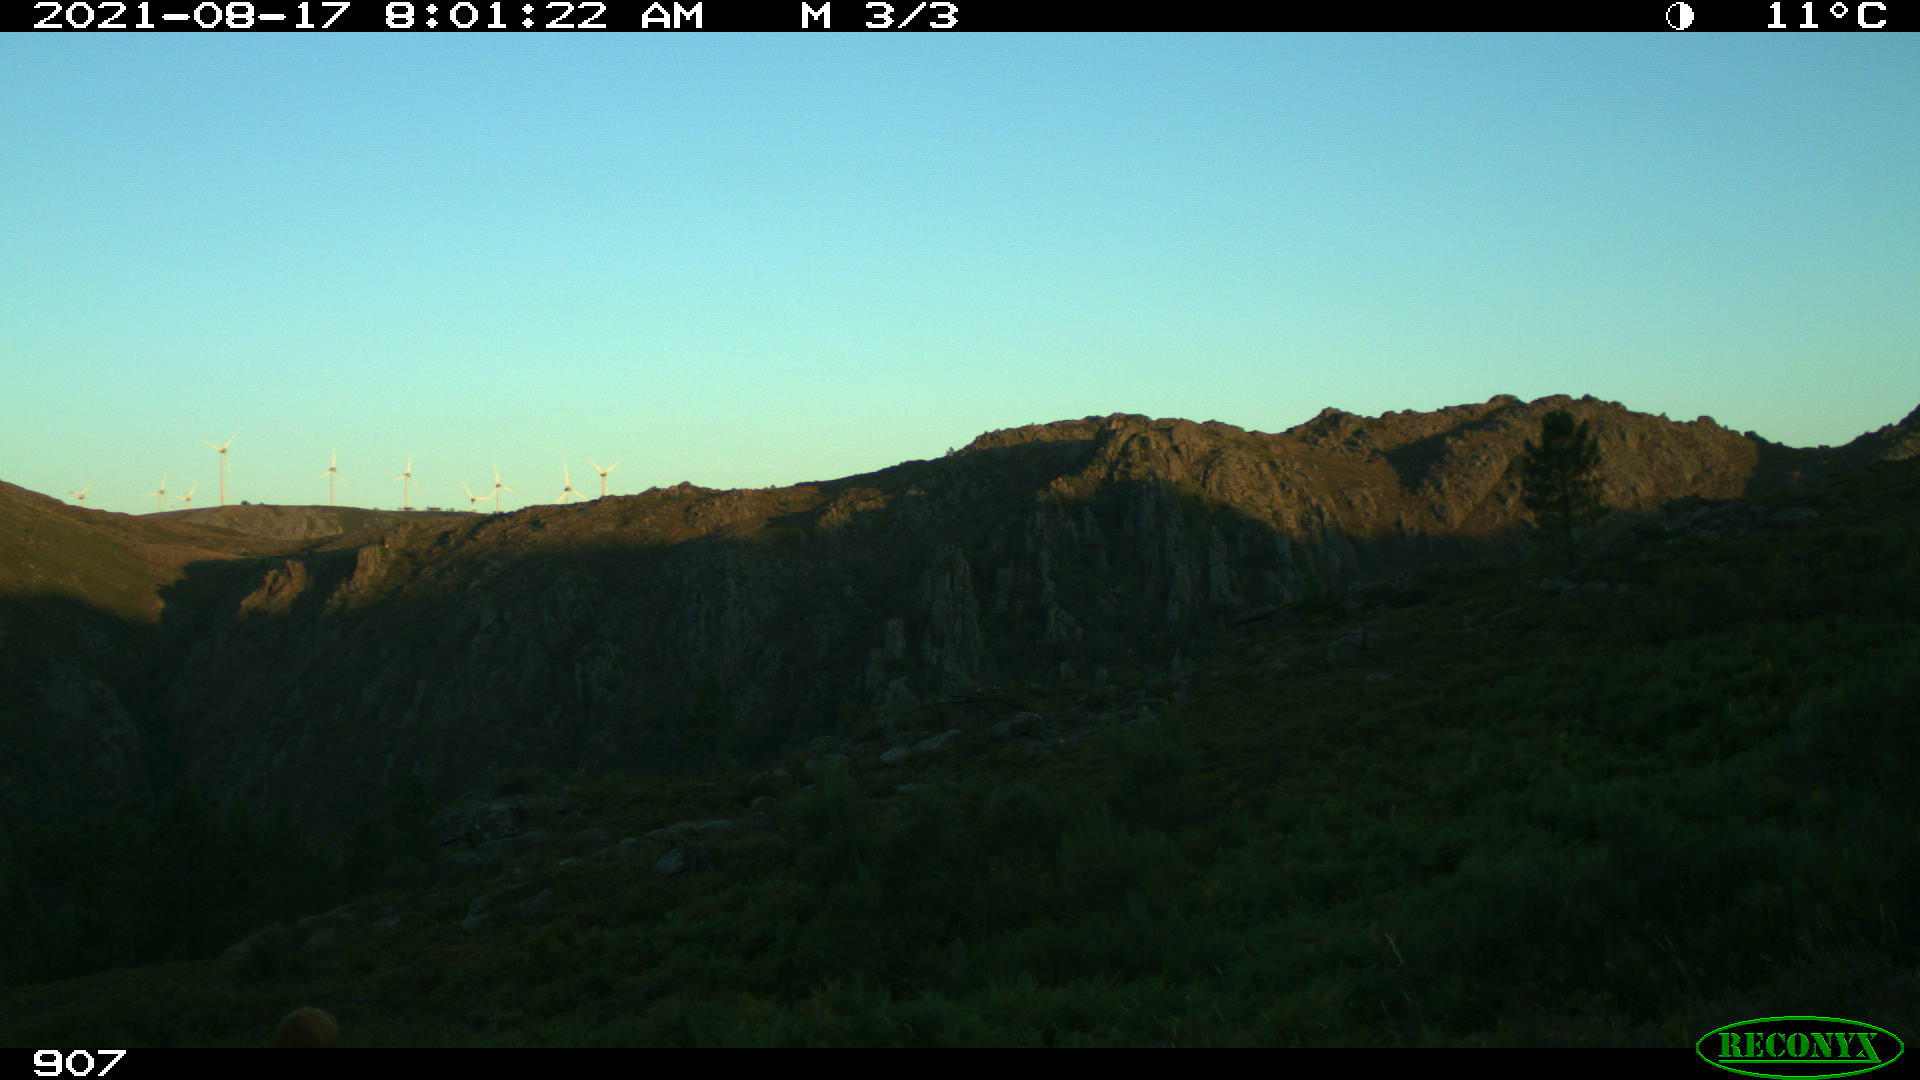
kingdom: Animalia
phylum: Chordata
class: Mammalia
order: Artiodactyla
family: Bovidae
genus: Bos
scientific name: Bos taurus
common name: Domesticated cattle
